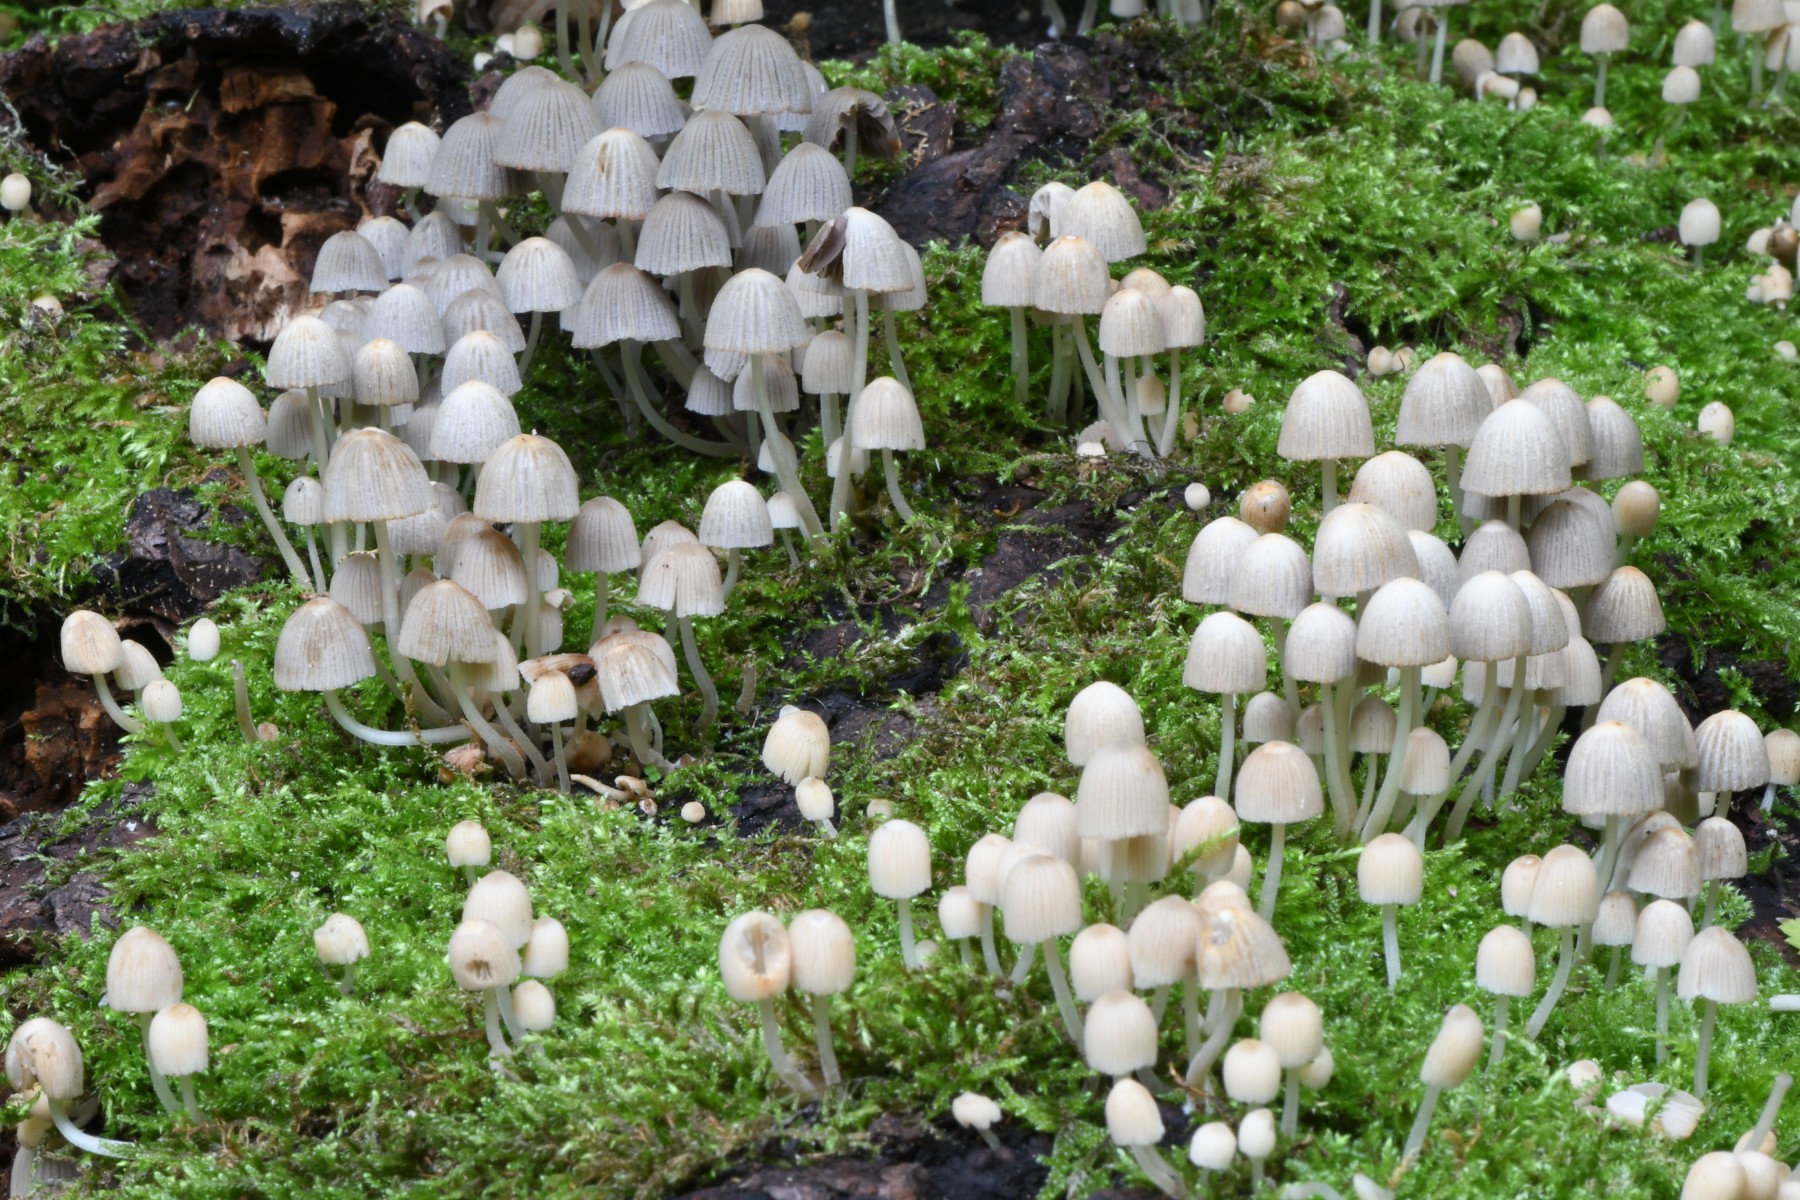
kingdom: Fungi
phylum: Basidiomycota
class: Agaricomycetes
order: Agaricales
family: Psathyrellaceae
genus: Coprinellus
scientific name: Coprinellus disseminatus
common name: bredsået blækhat
